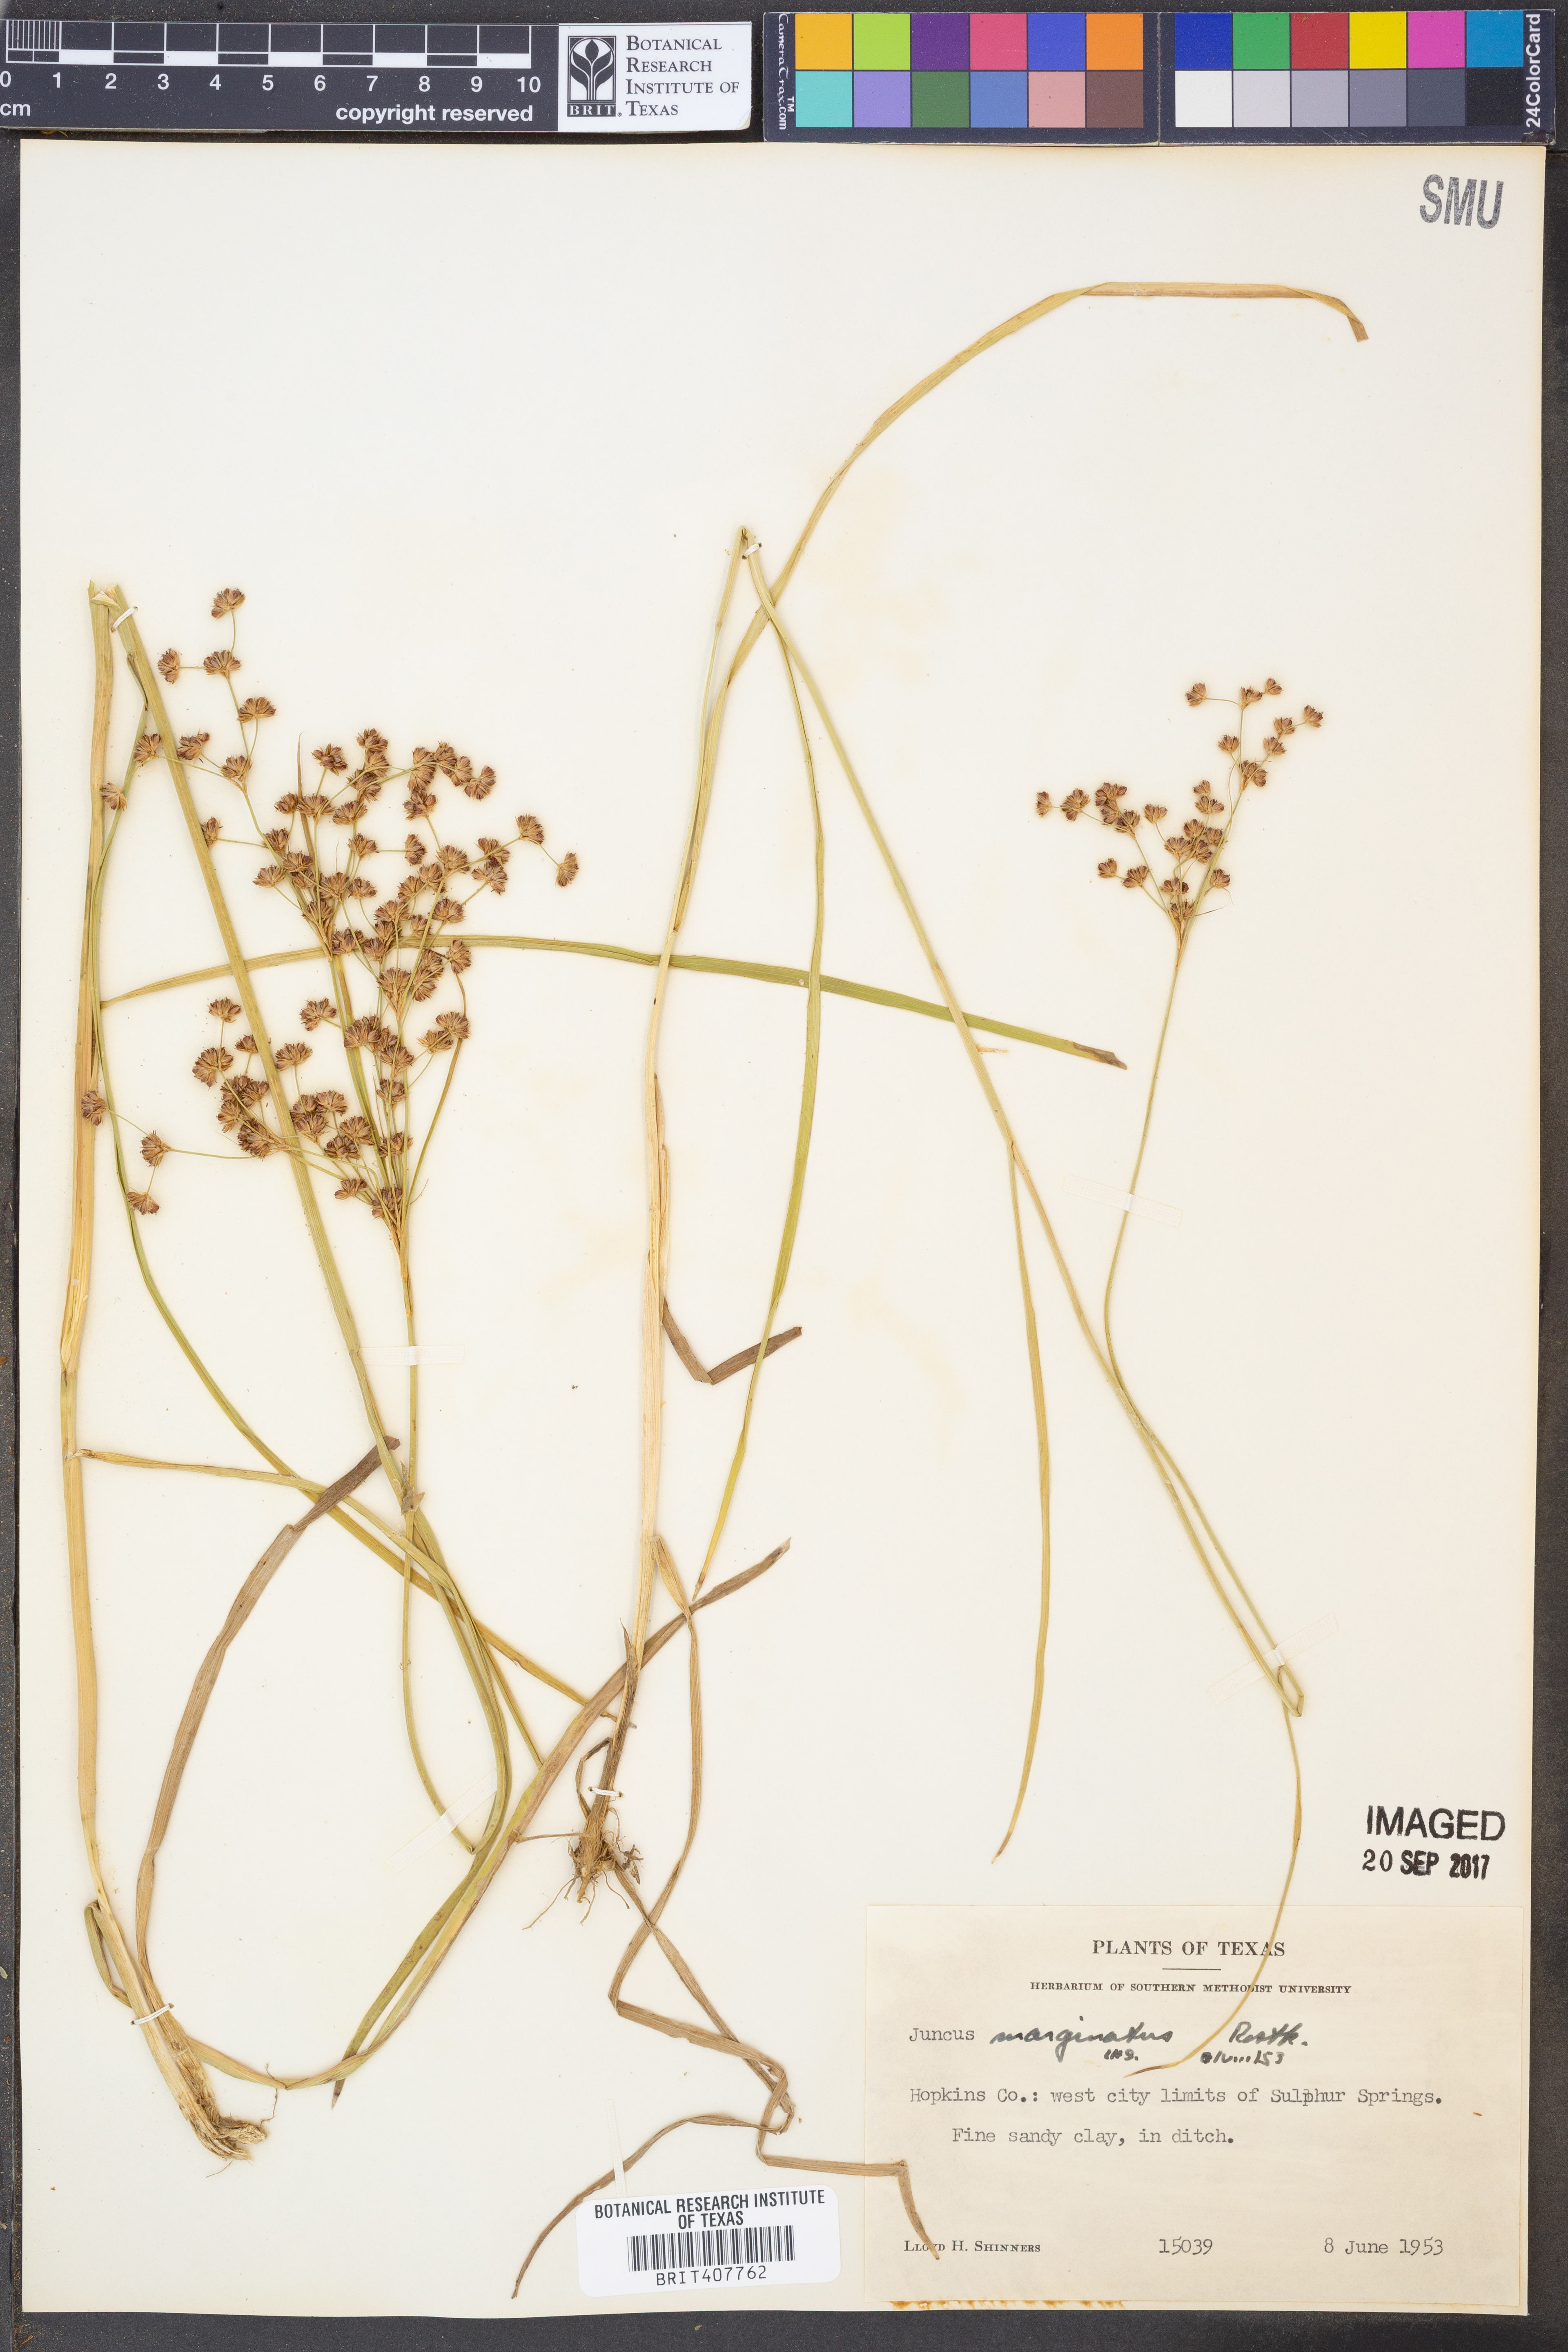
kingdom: Plantae
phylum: Tracheophyta
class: Liliopsida
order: Poales
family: Juncaceae
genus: Juncus
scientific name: Juncus marginatus
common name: Grass-leaf rush
